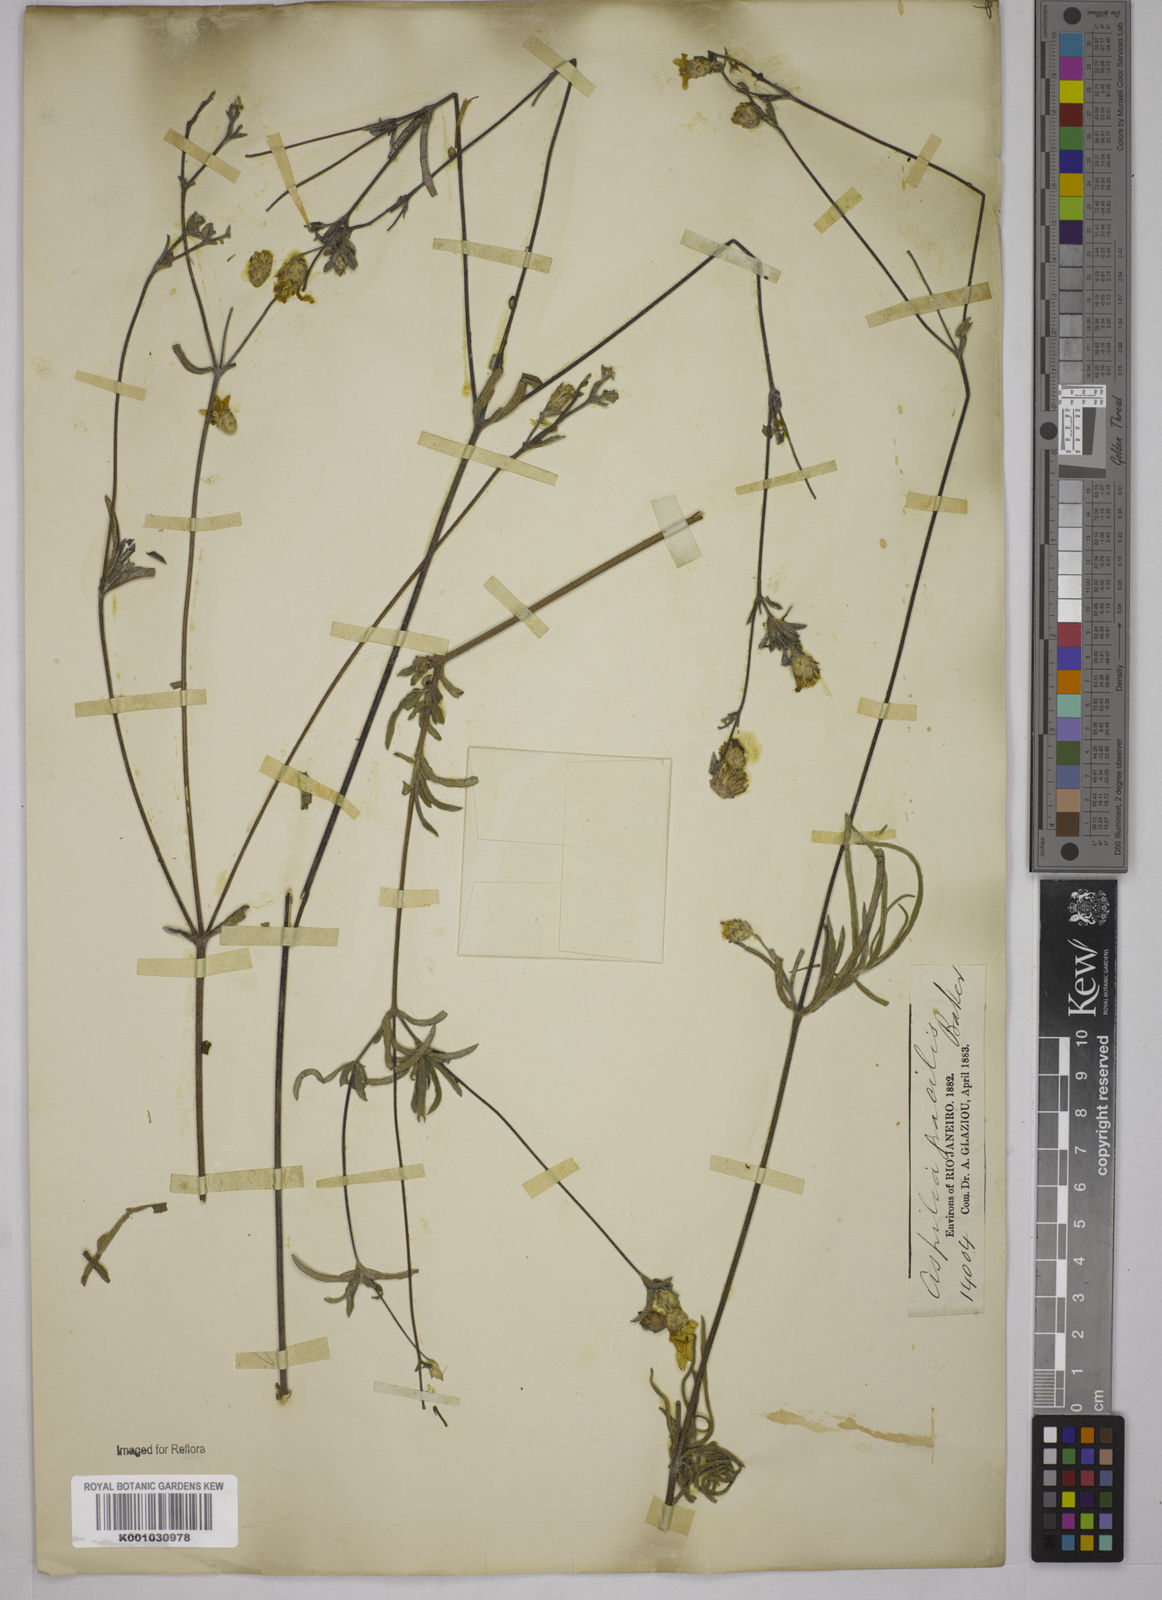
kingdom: Plantae
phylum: Tracheophyta
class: Magnoliopsida
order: Asterales
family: Asteraceae
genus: Wedelia
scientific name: Wedelia floribunda
